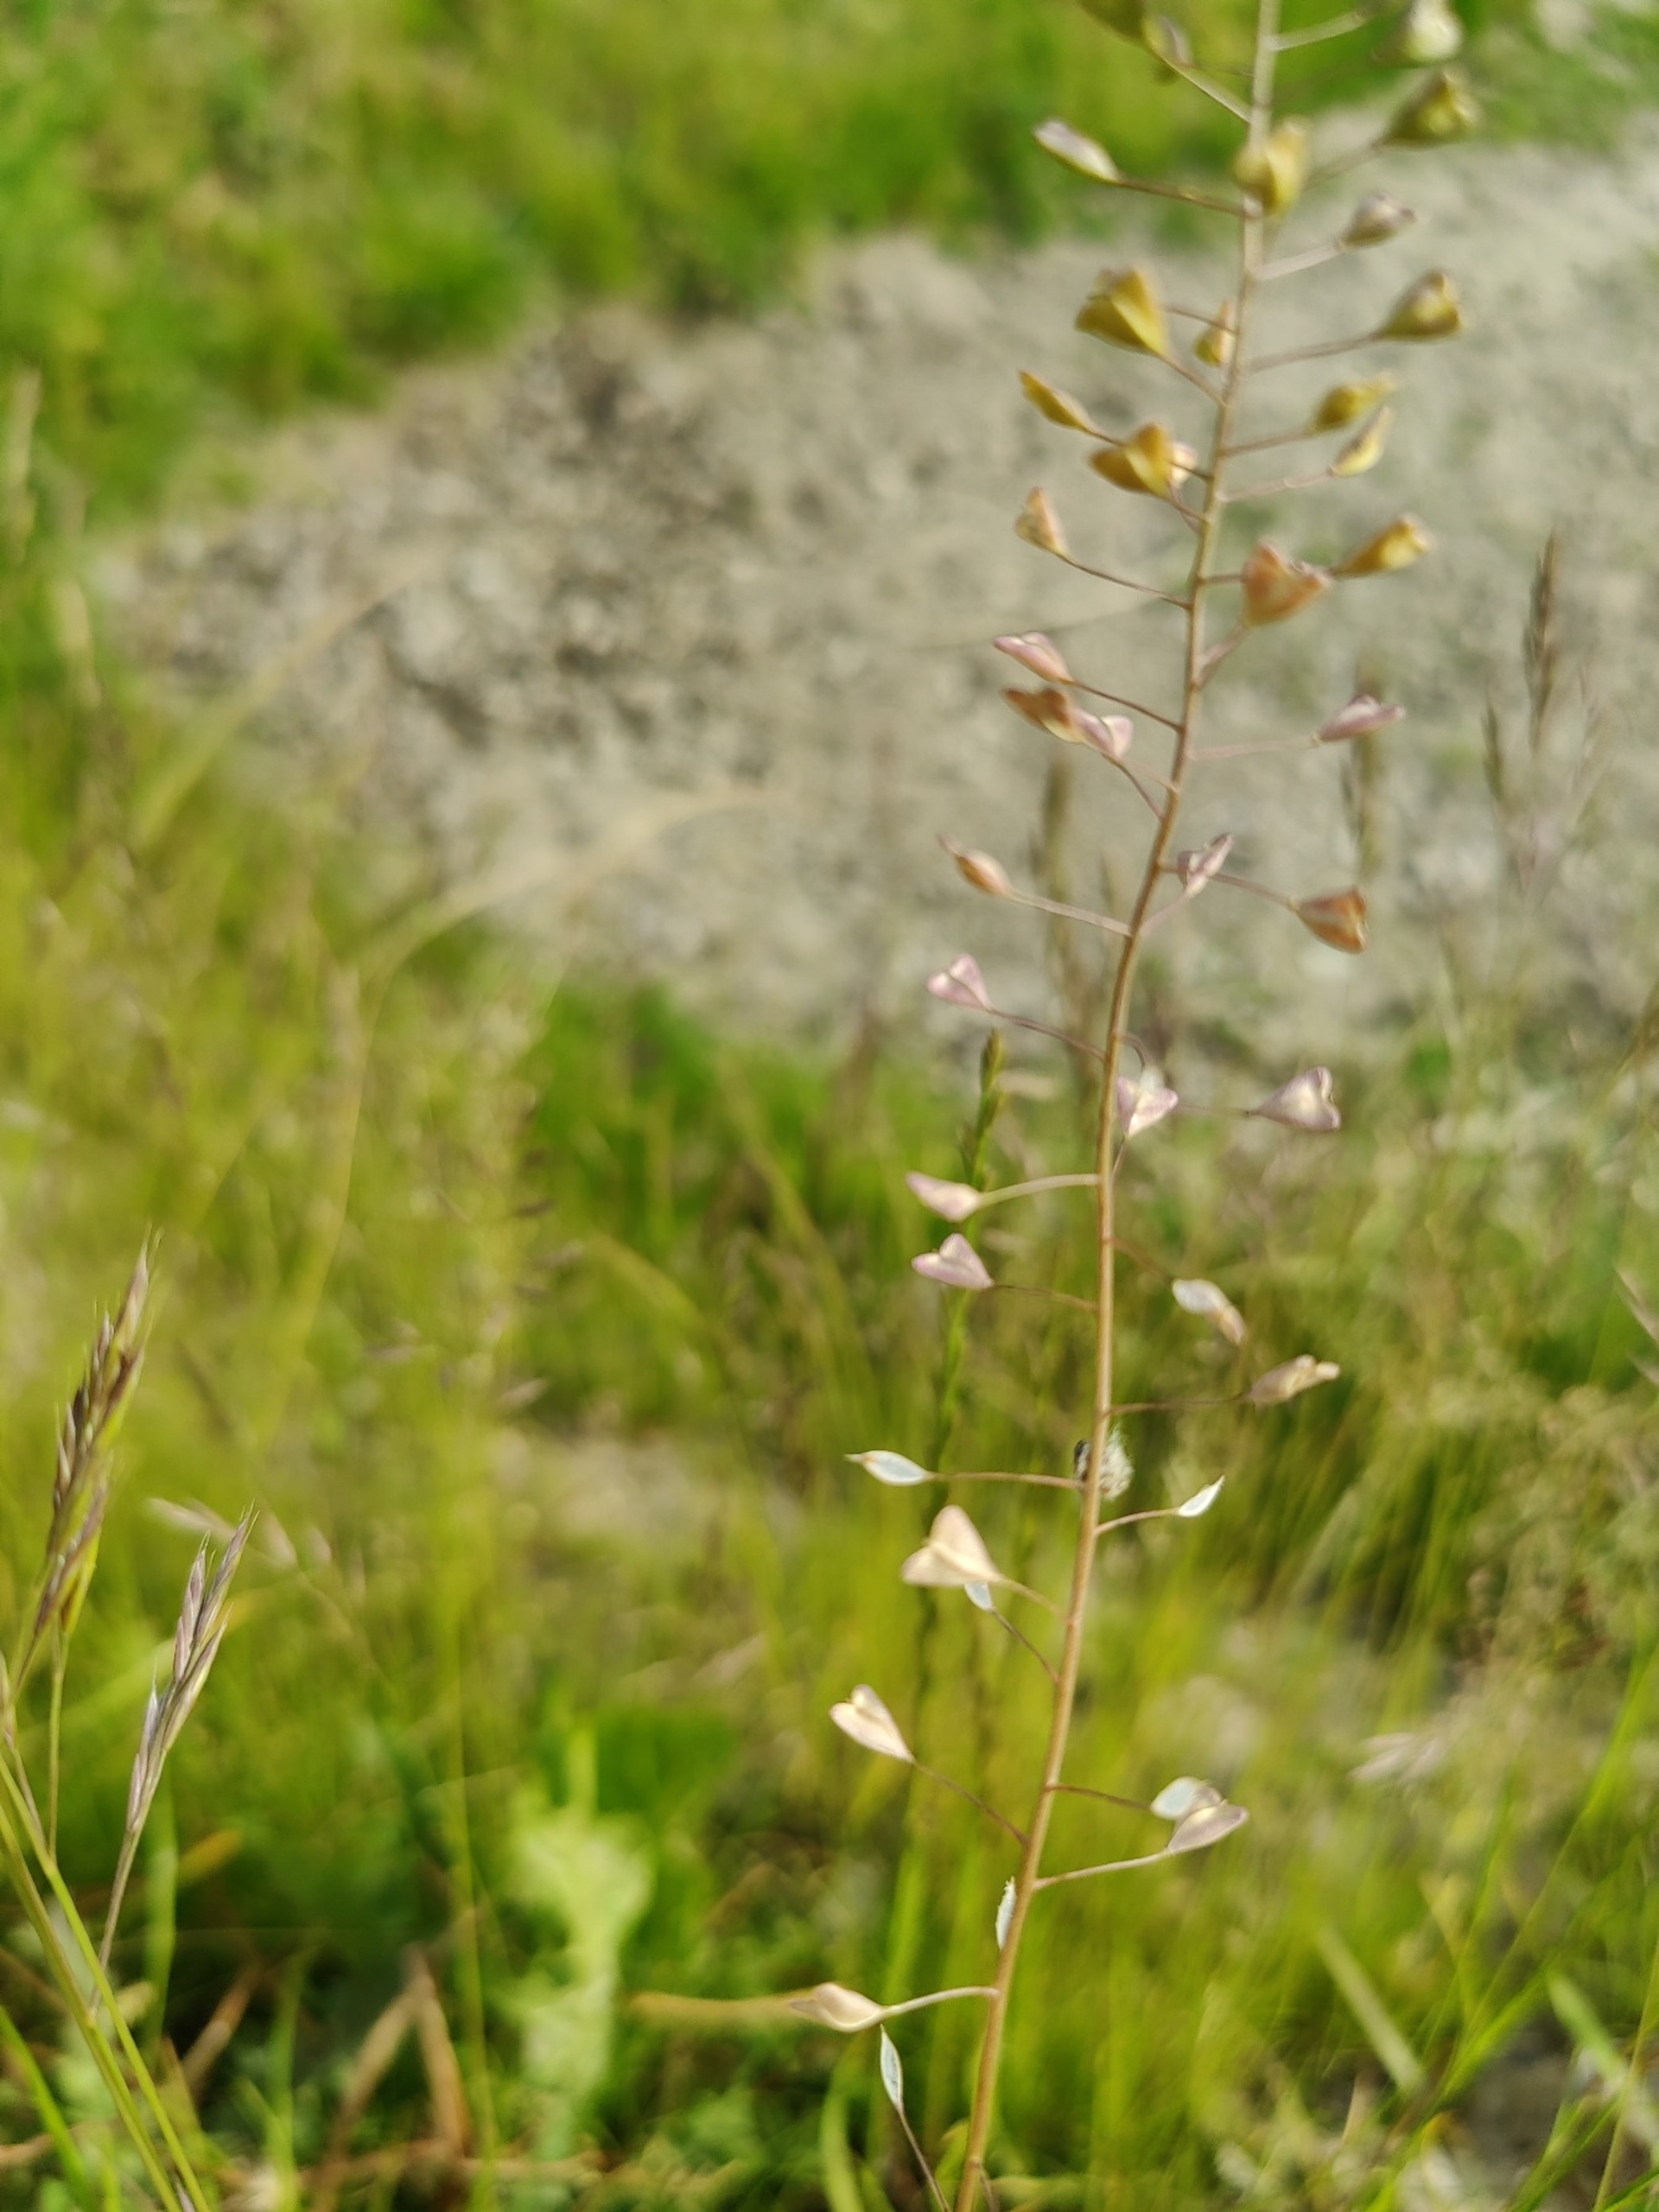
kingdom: Plantae
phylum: Tracheophyta
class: Magnoliopsida
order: Brassicales
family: Brassicaceae
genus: Capsella
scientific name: Capsella bursa-pastoris
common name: Hyrdetaske
